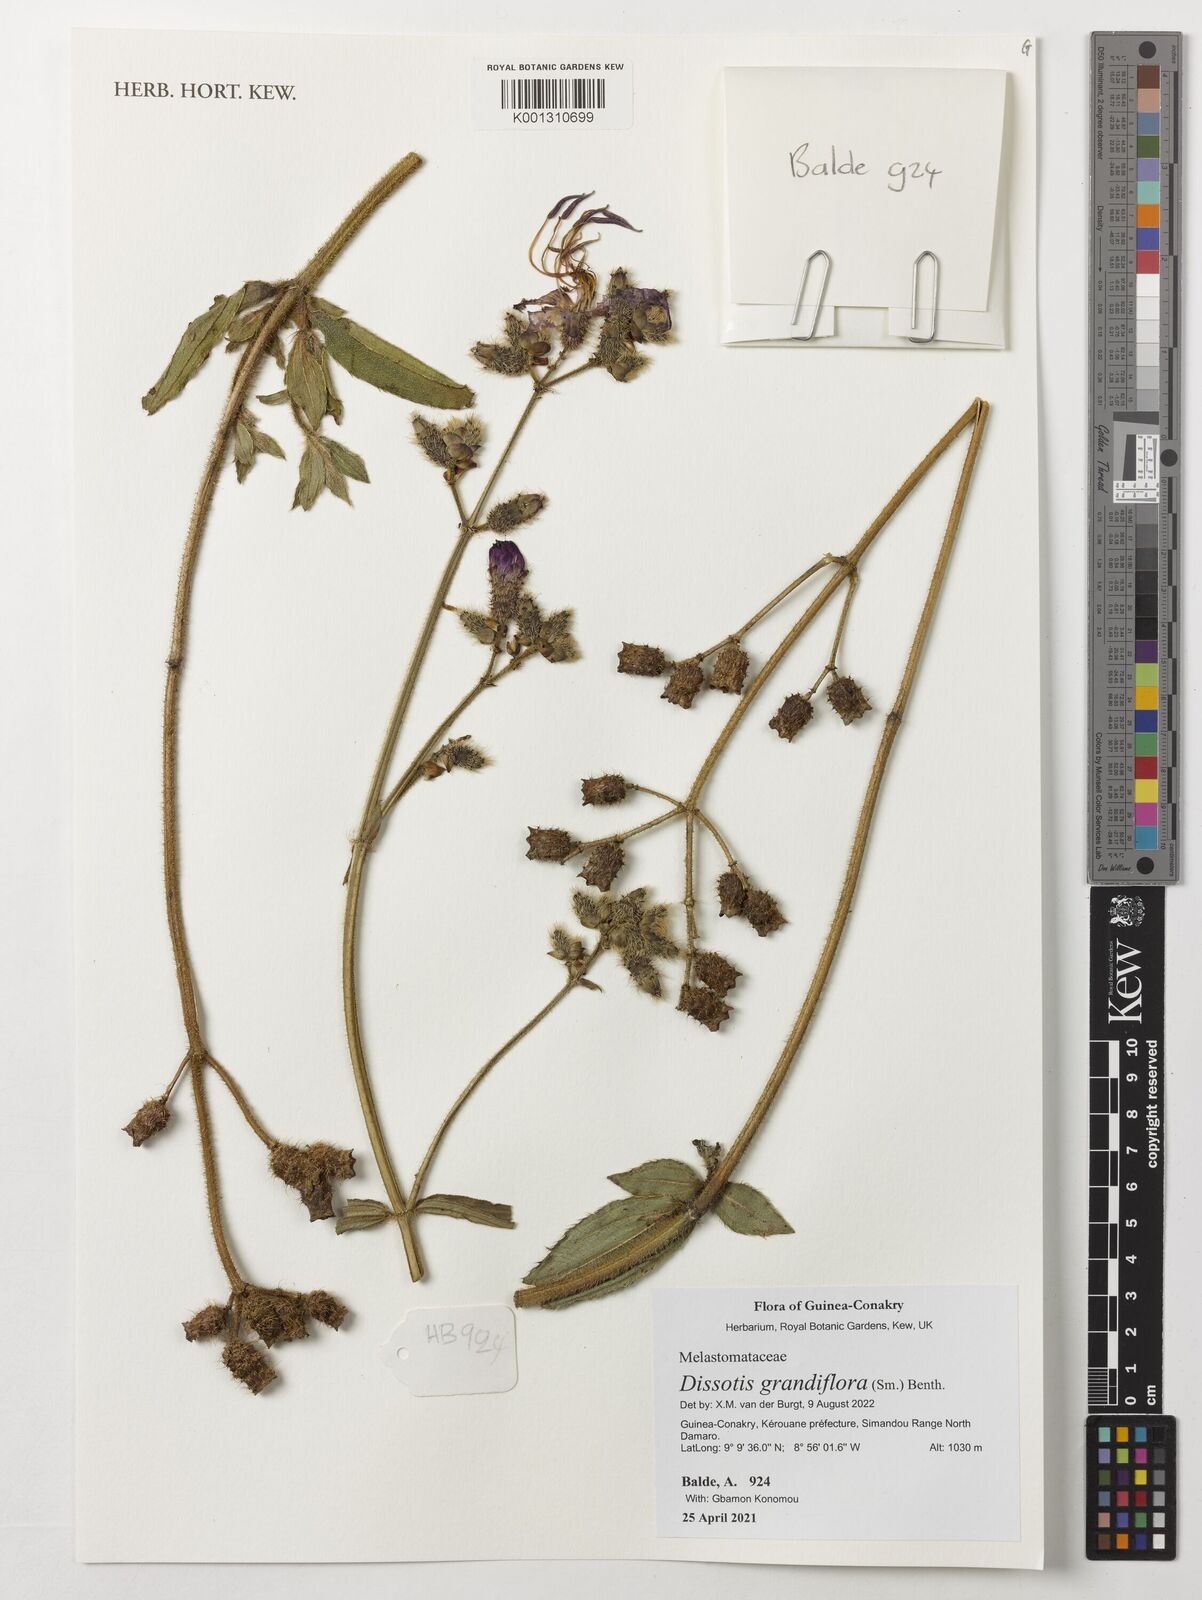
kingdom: Plantae
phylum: Tracheophyta
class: Magnoliopsida
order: Myrtales
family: Melastomataceae
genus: Dissotis
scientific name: Dissotis grandiflora
